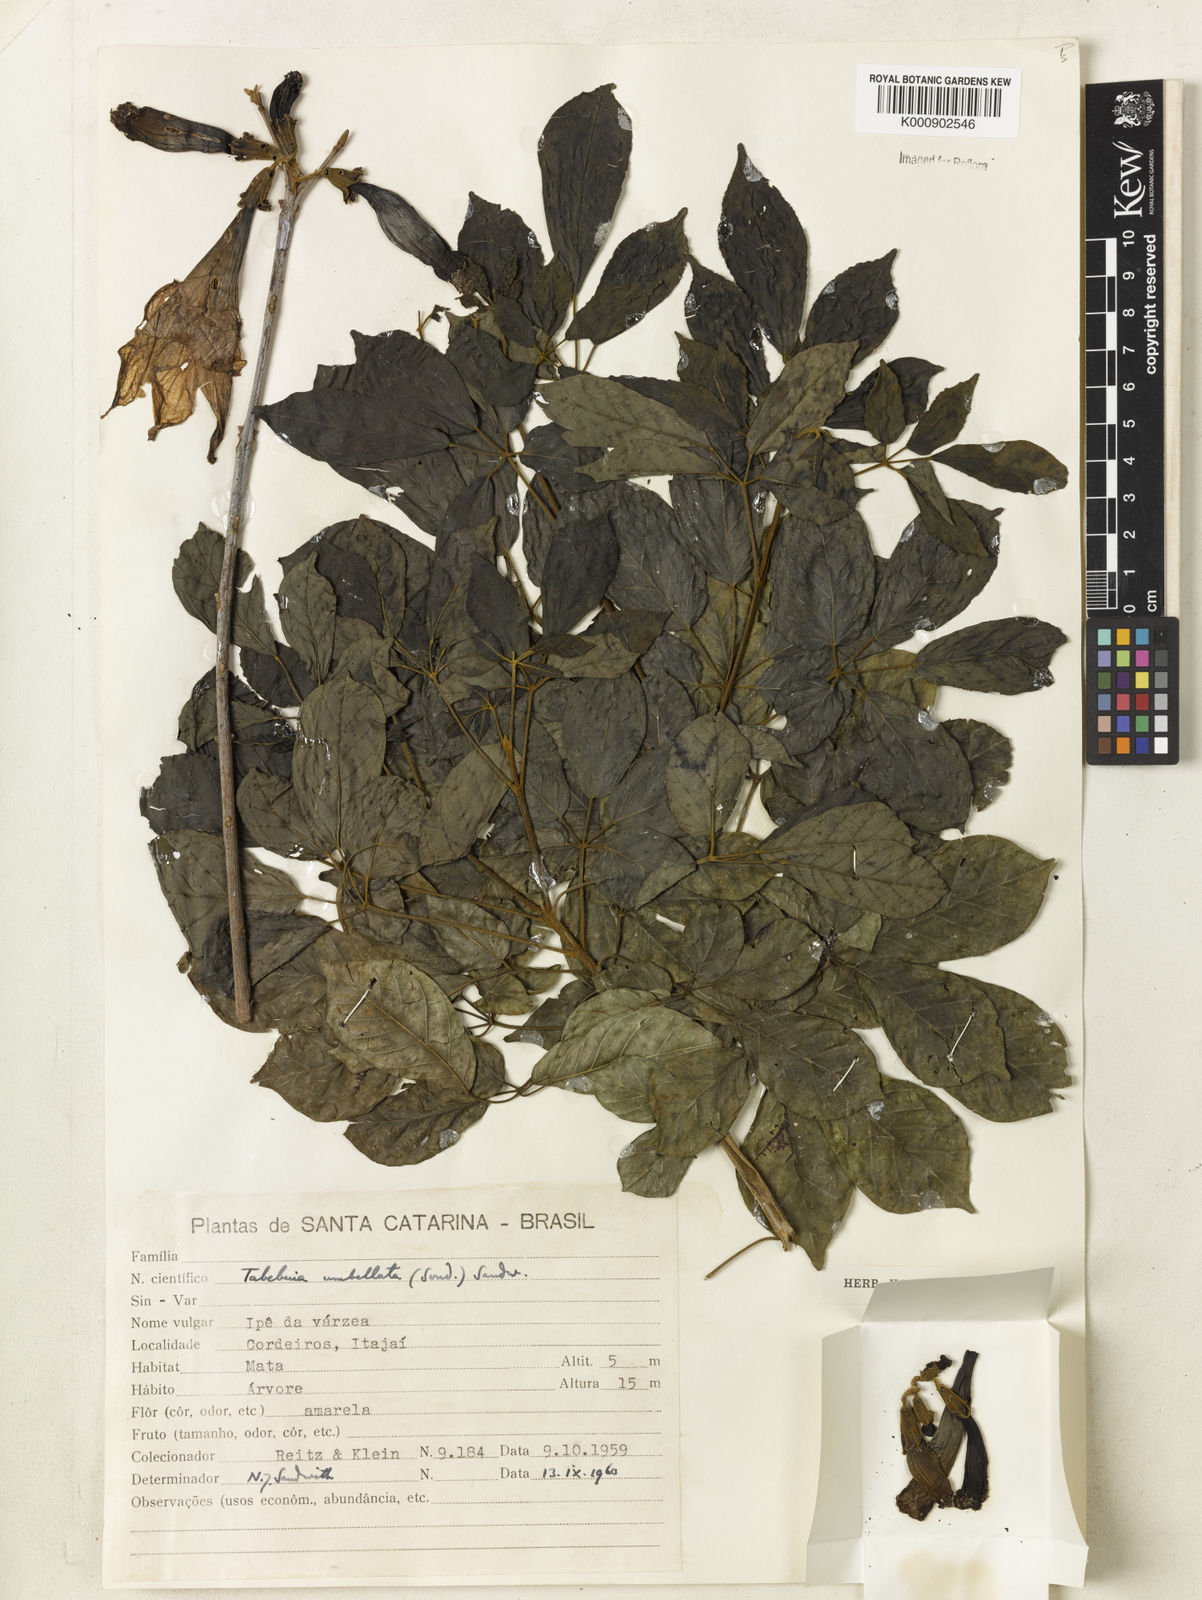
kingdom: Plantae
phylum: Tracheophyta
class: Magnoliopsida
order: Lamiales
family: Bignoniaceae
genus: Handroanthus
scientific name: Handroanthus umbellatus
